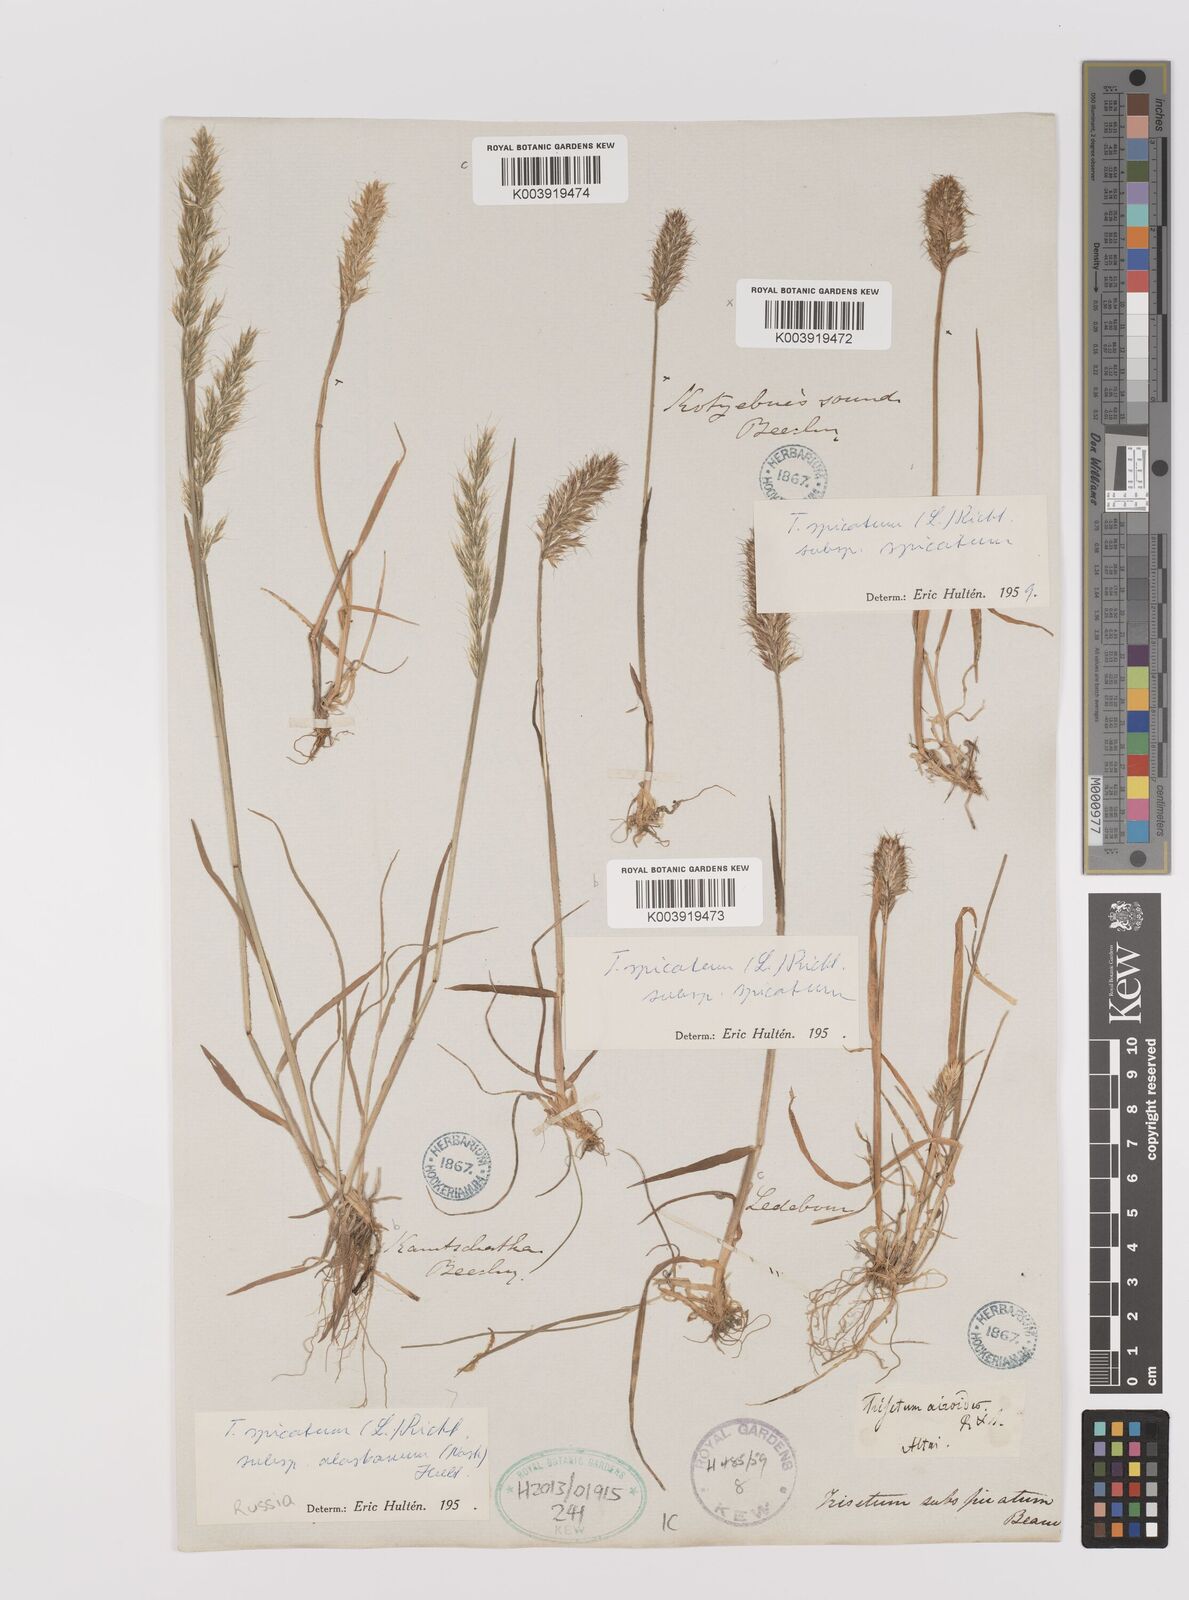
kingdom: Plantae
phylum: Tracheophyta
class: Liliopsida
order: Poales
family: Poaceae
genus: Koeleria
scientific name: Koeleria spicata
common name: Mountain trisetum
